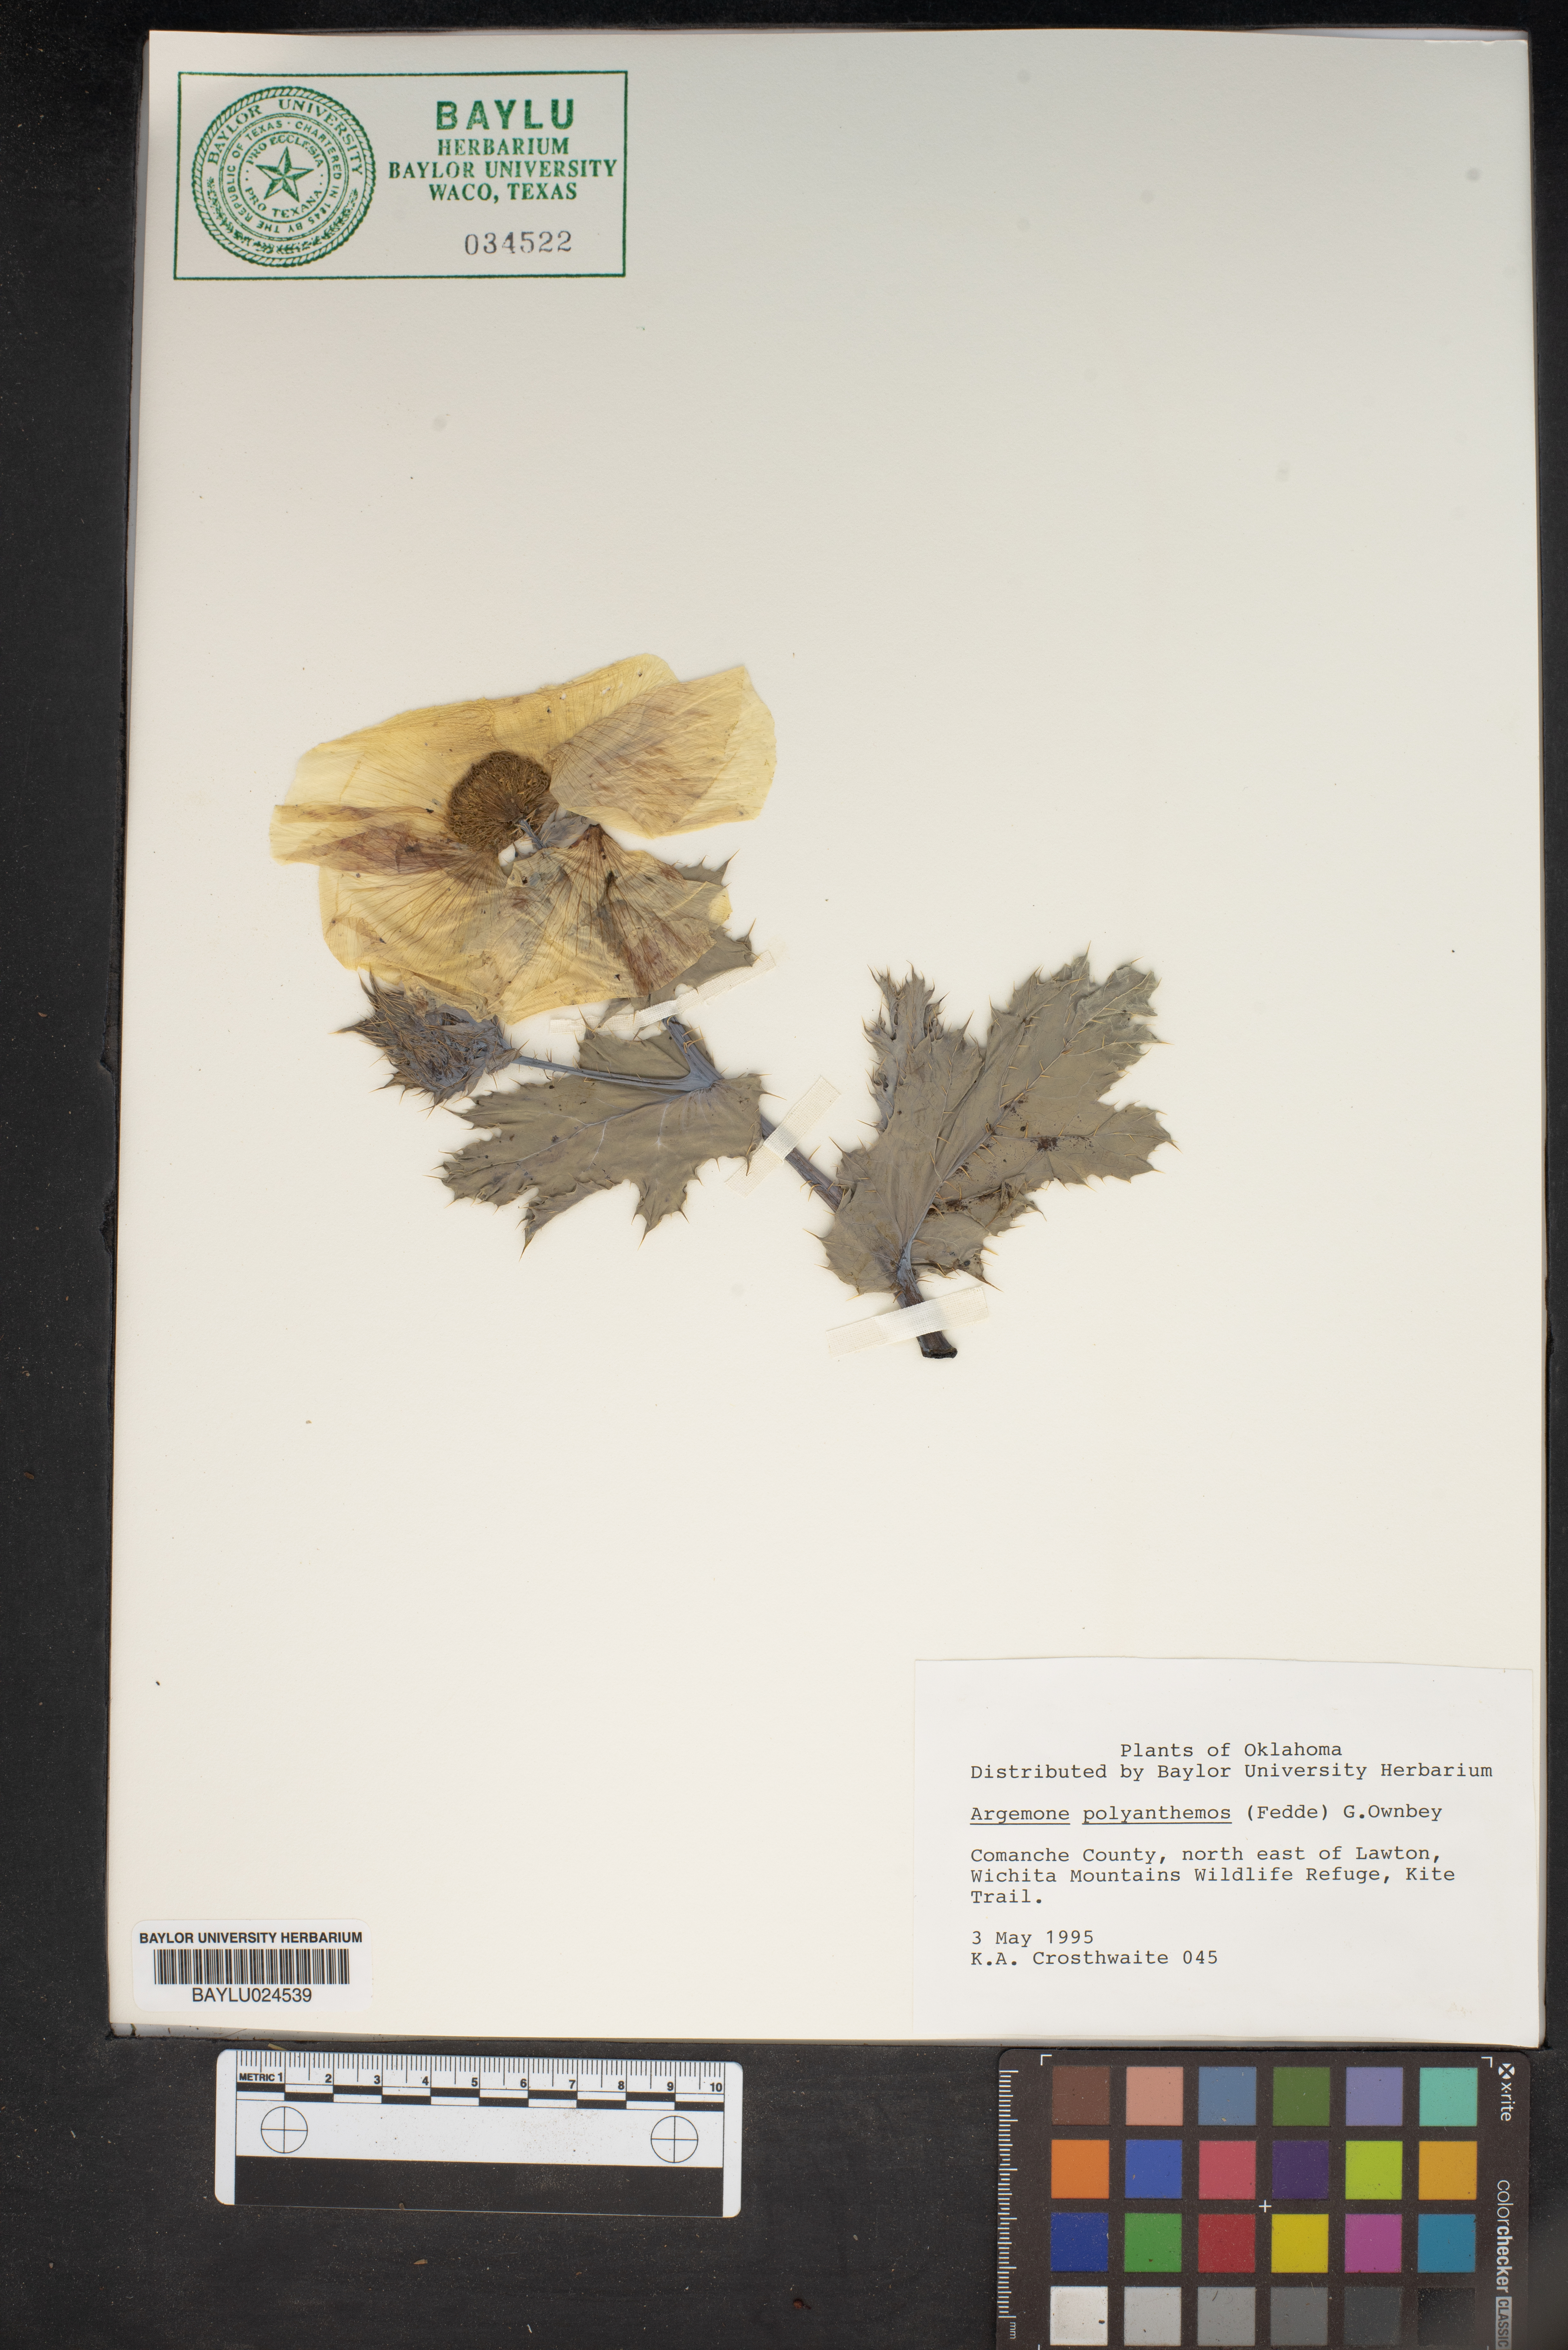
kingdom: Plantae
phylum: Tracheophyta
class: Magnoliopsida
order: Ranunculales
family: Papaveraceae
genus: Argemone
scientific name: Argemone polyanthemos
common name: Plains prickly-poppy
